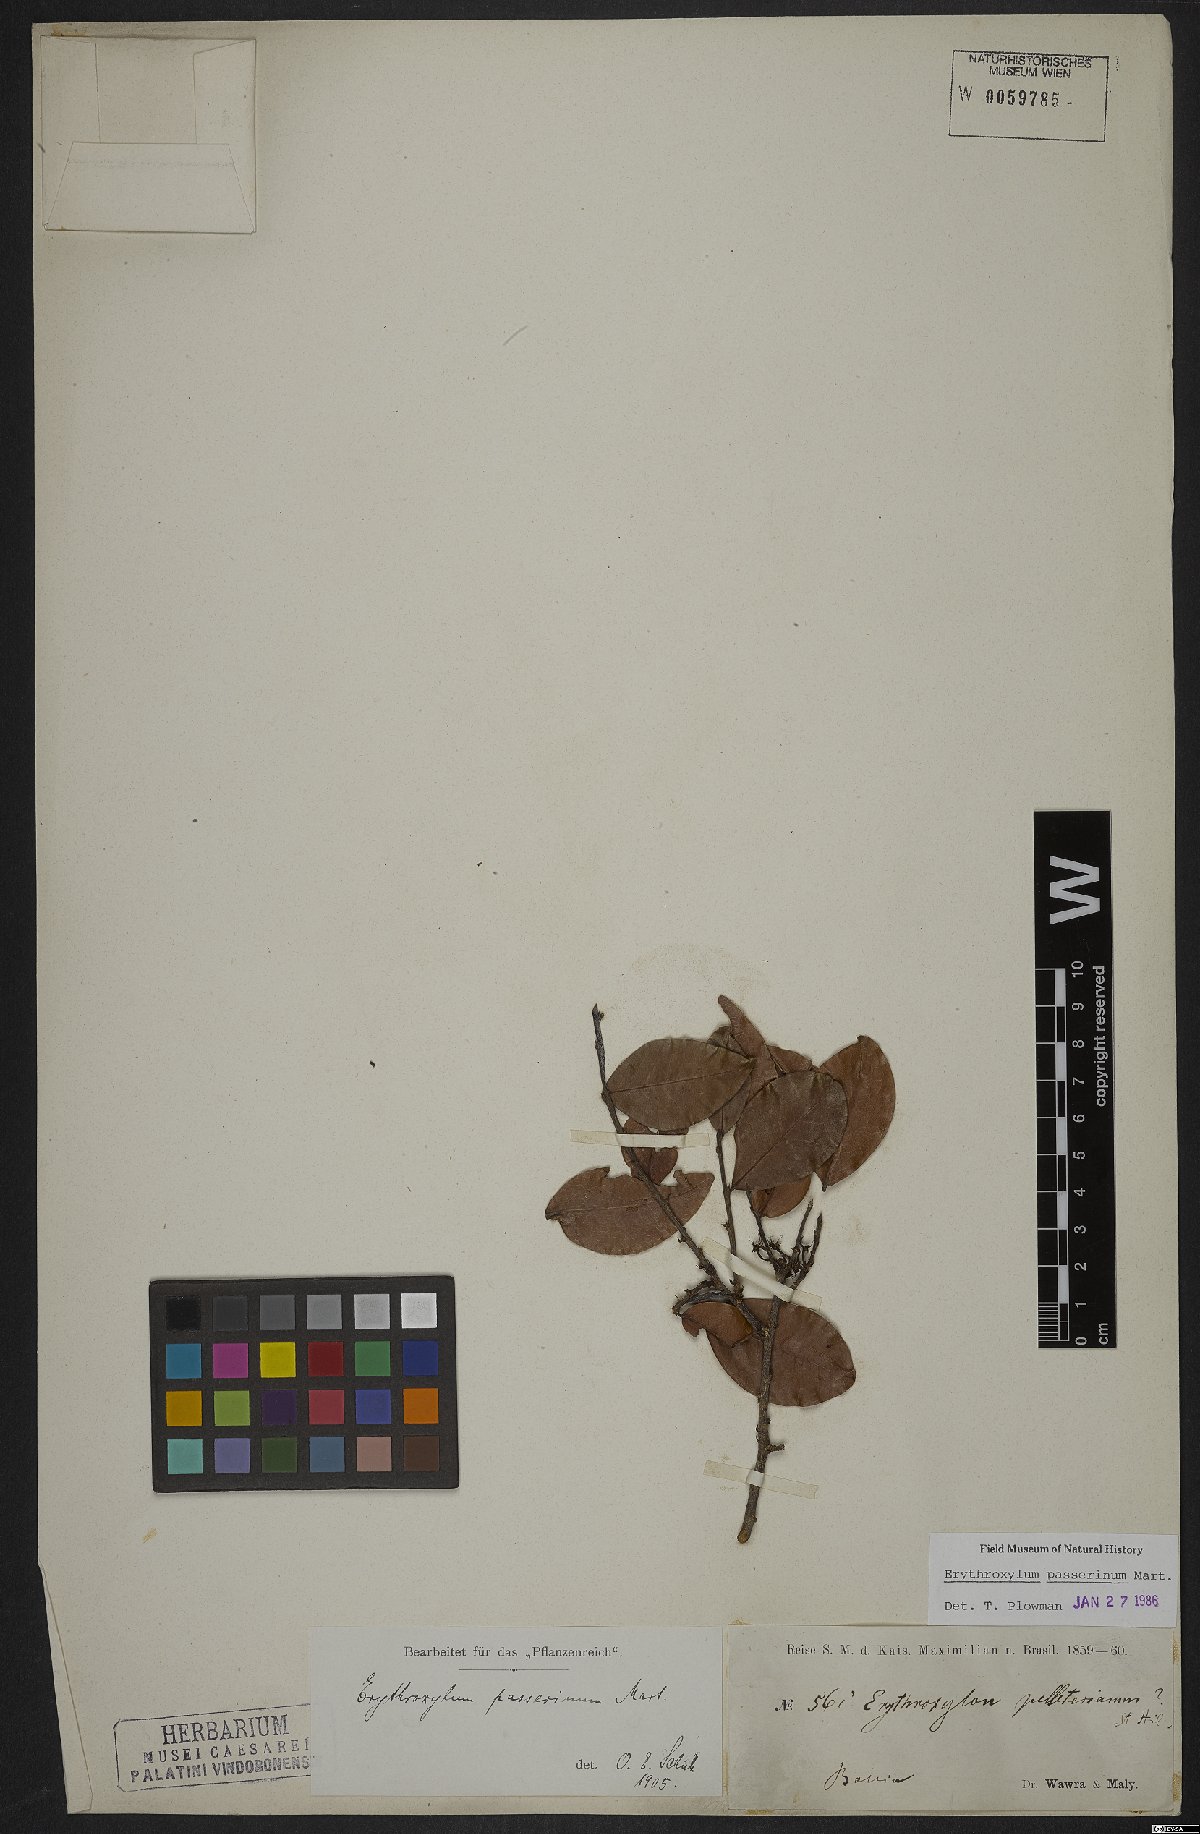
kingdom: Plantae
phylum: Tracheophyta
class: Magnoliopsida
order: Malpighiales
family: Erythroxylaceae
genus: Erythroxylum
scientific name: Erythroxylum passerinum
